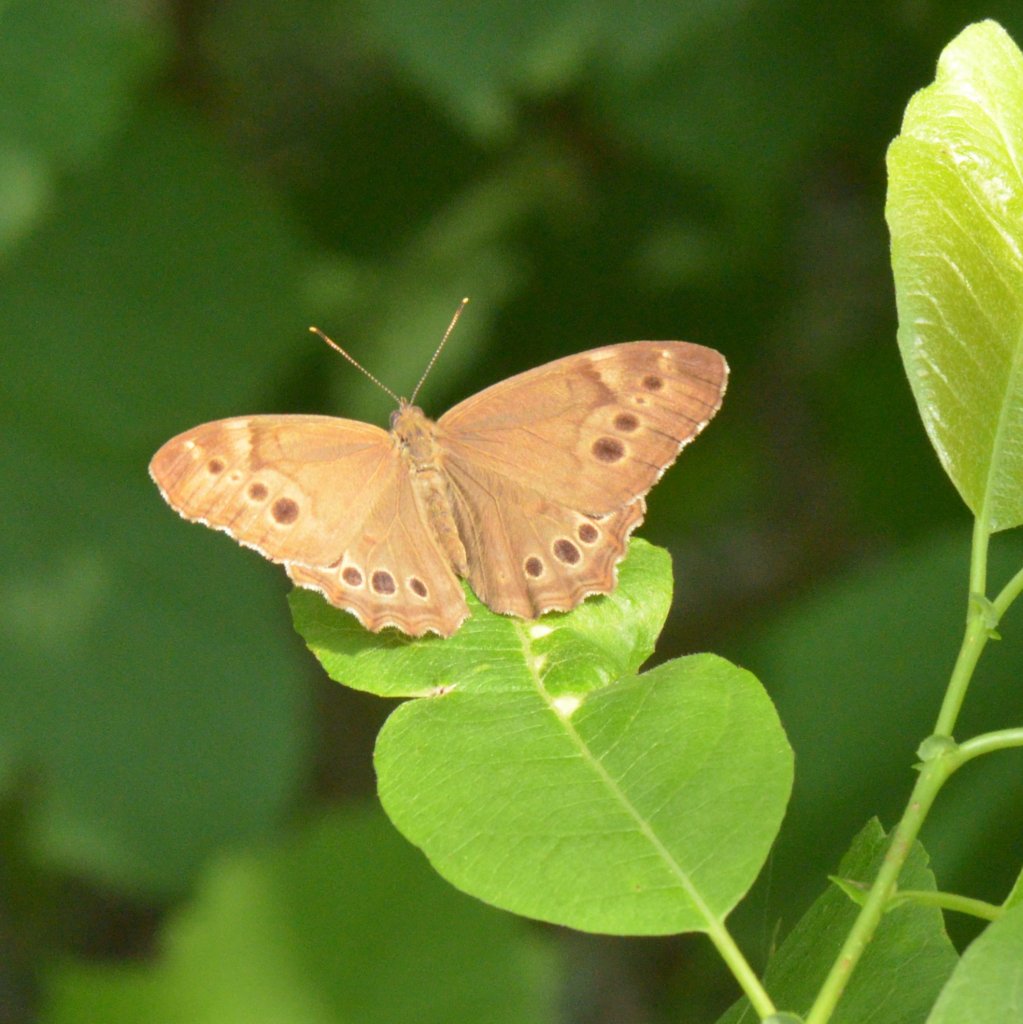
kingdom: Animalia
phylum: Arthropoda
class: Insecta
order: Lepidoptera
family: Nymphalidae
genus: Lethe
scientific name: Lethe anthedon
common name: Northern Pearly-Eye
